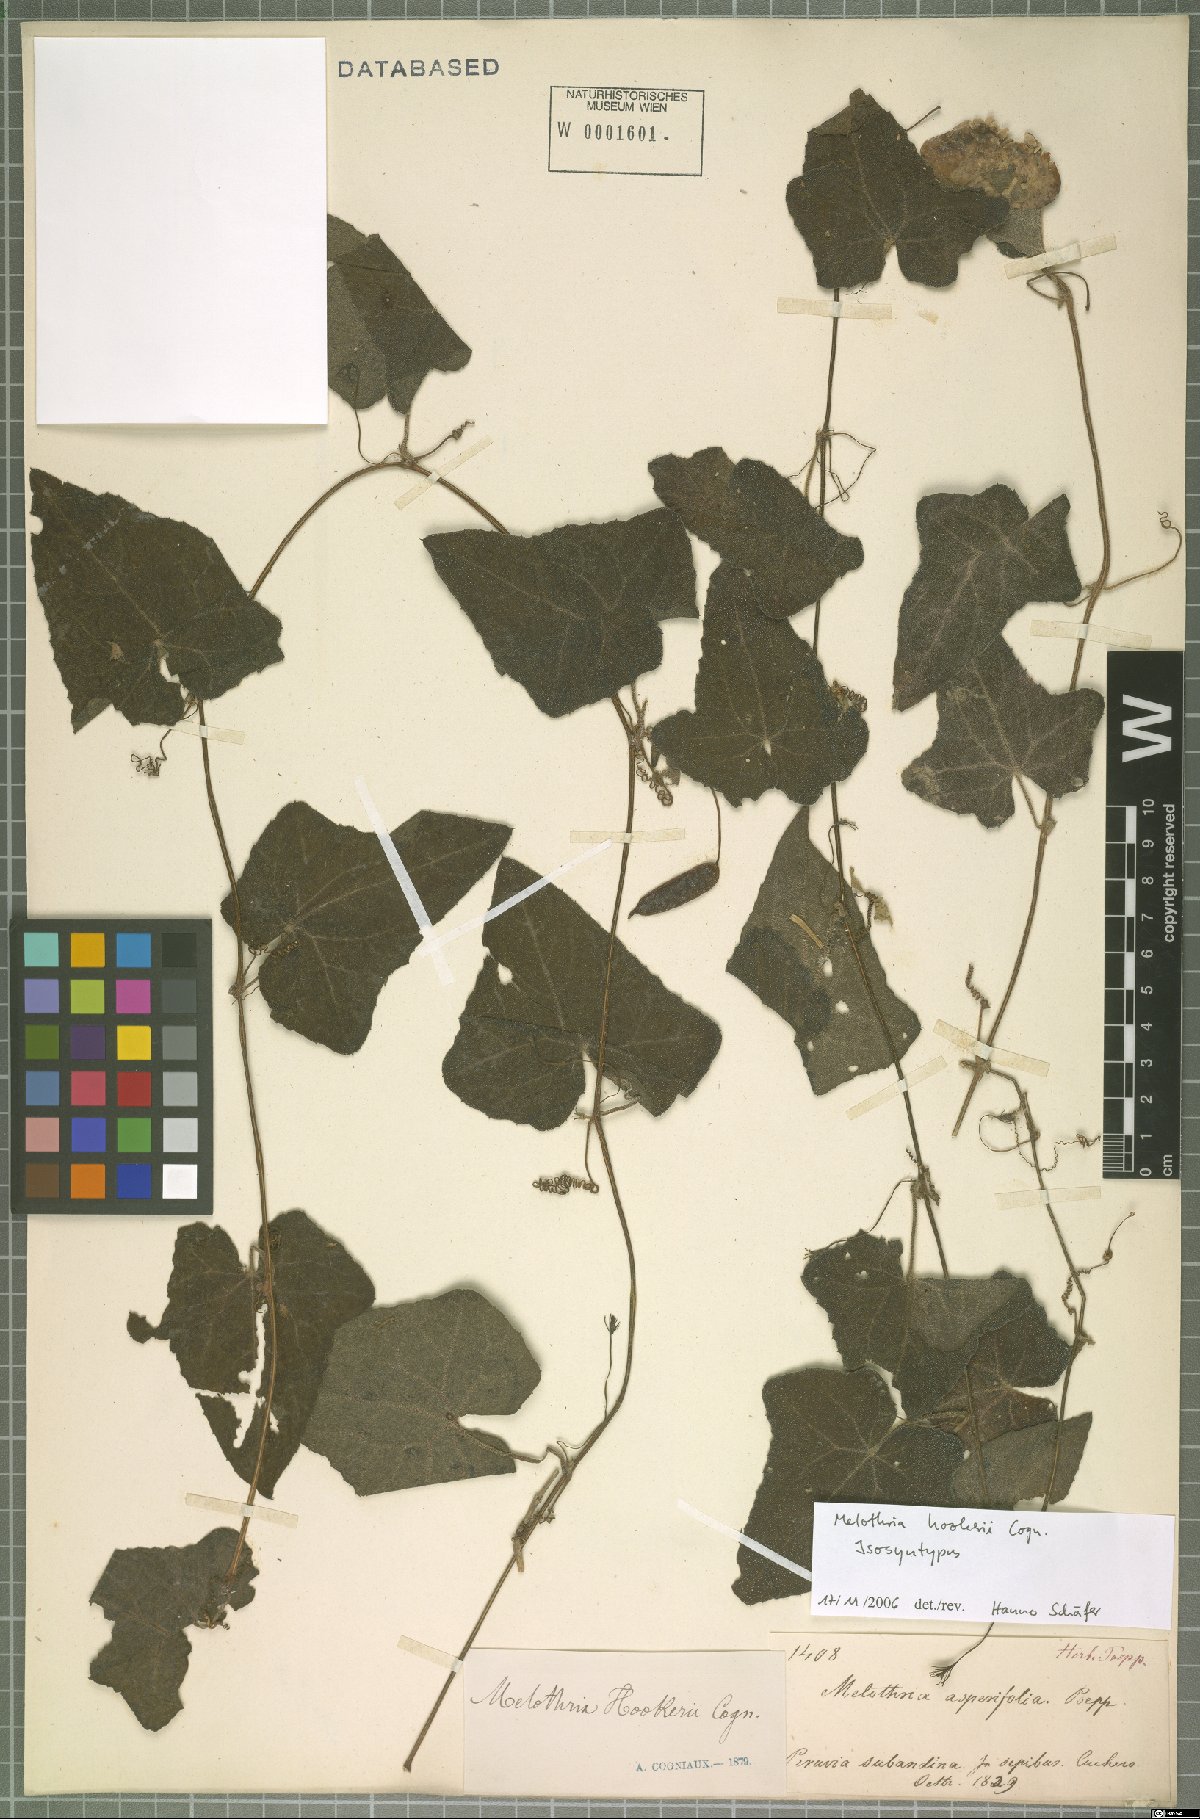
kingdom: Plantae
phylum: Tracheophyta
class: Magnoliopsida
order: Cucurbitales
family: Cucurbitaceae
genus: Melothria
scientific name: Melothria warmingii
